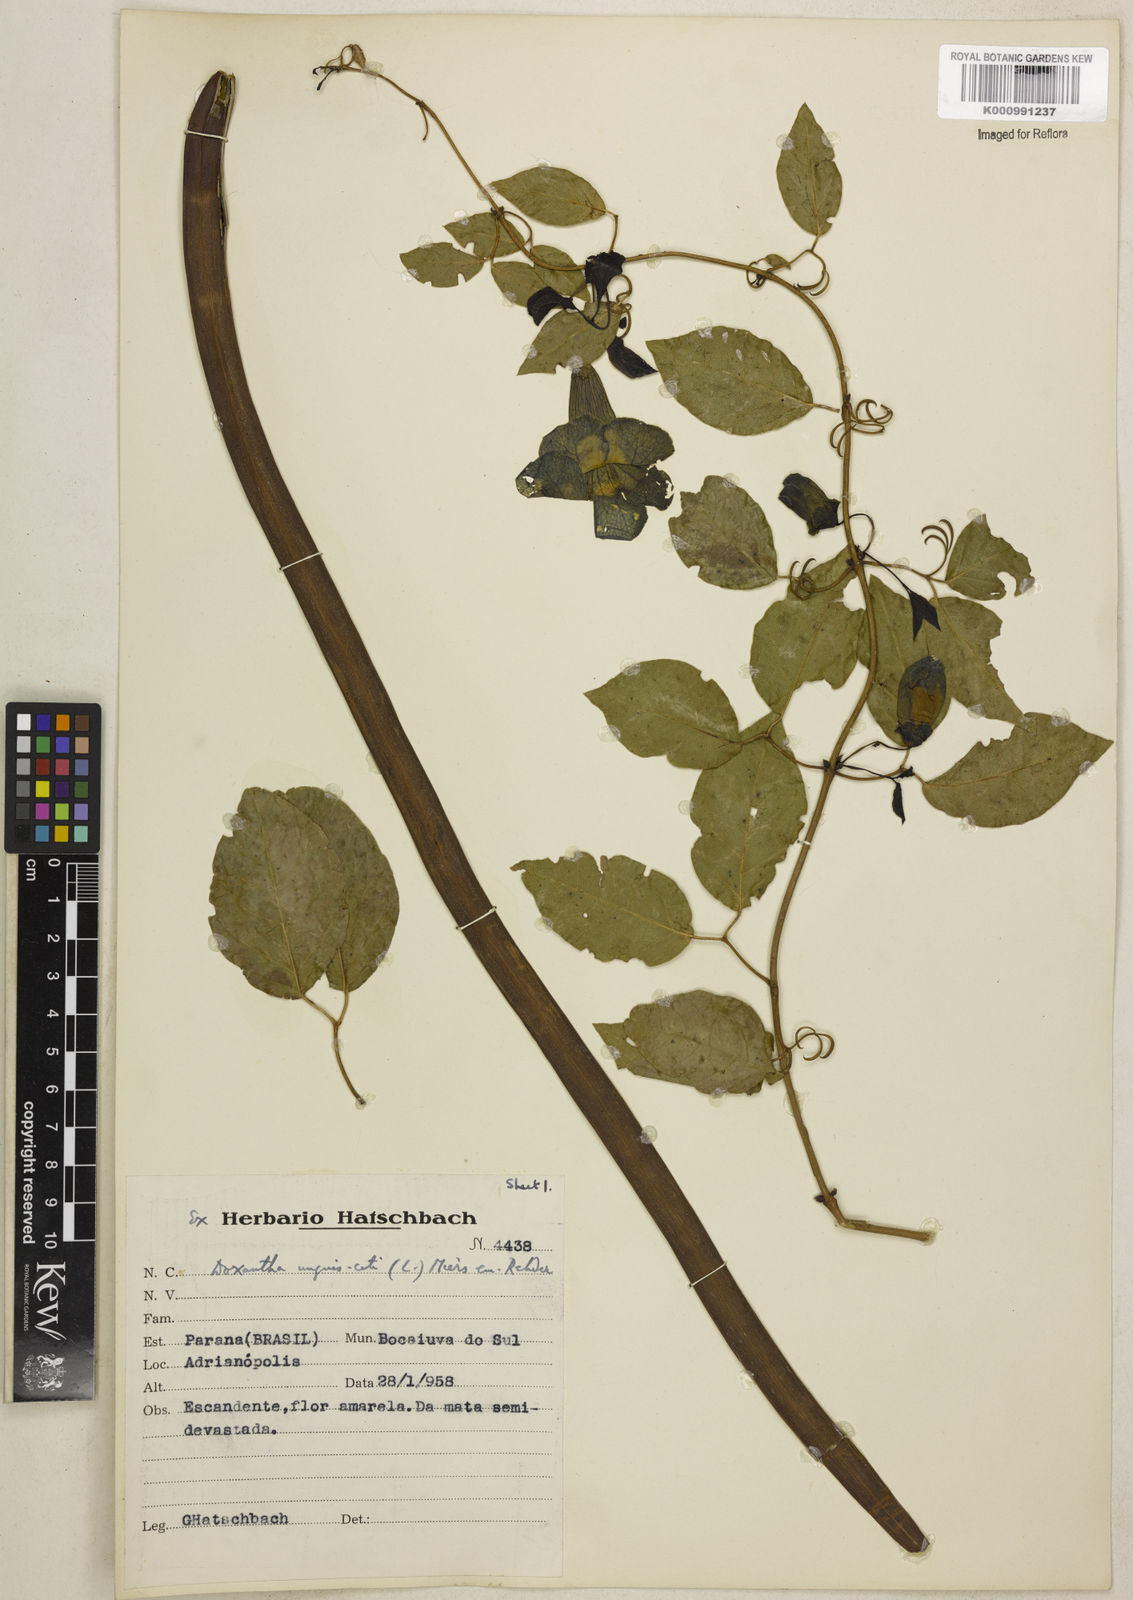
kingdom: Plantae
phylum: Tracheophyta
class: Magnoliopsida
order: Lamiales
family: Bignoniaceae
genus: Dolichandra
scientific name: Dolichandra unguis-cati
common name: Catclaw vine
